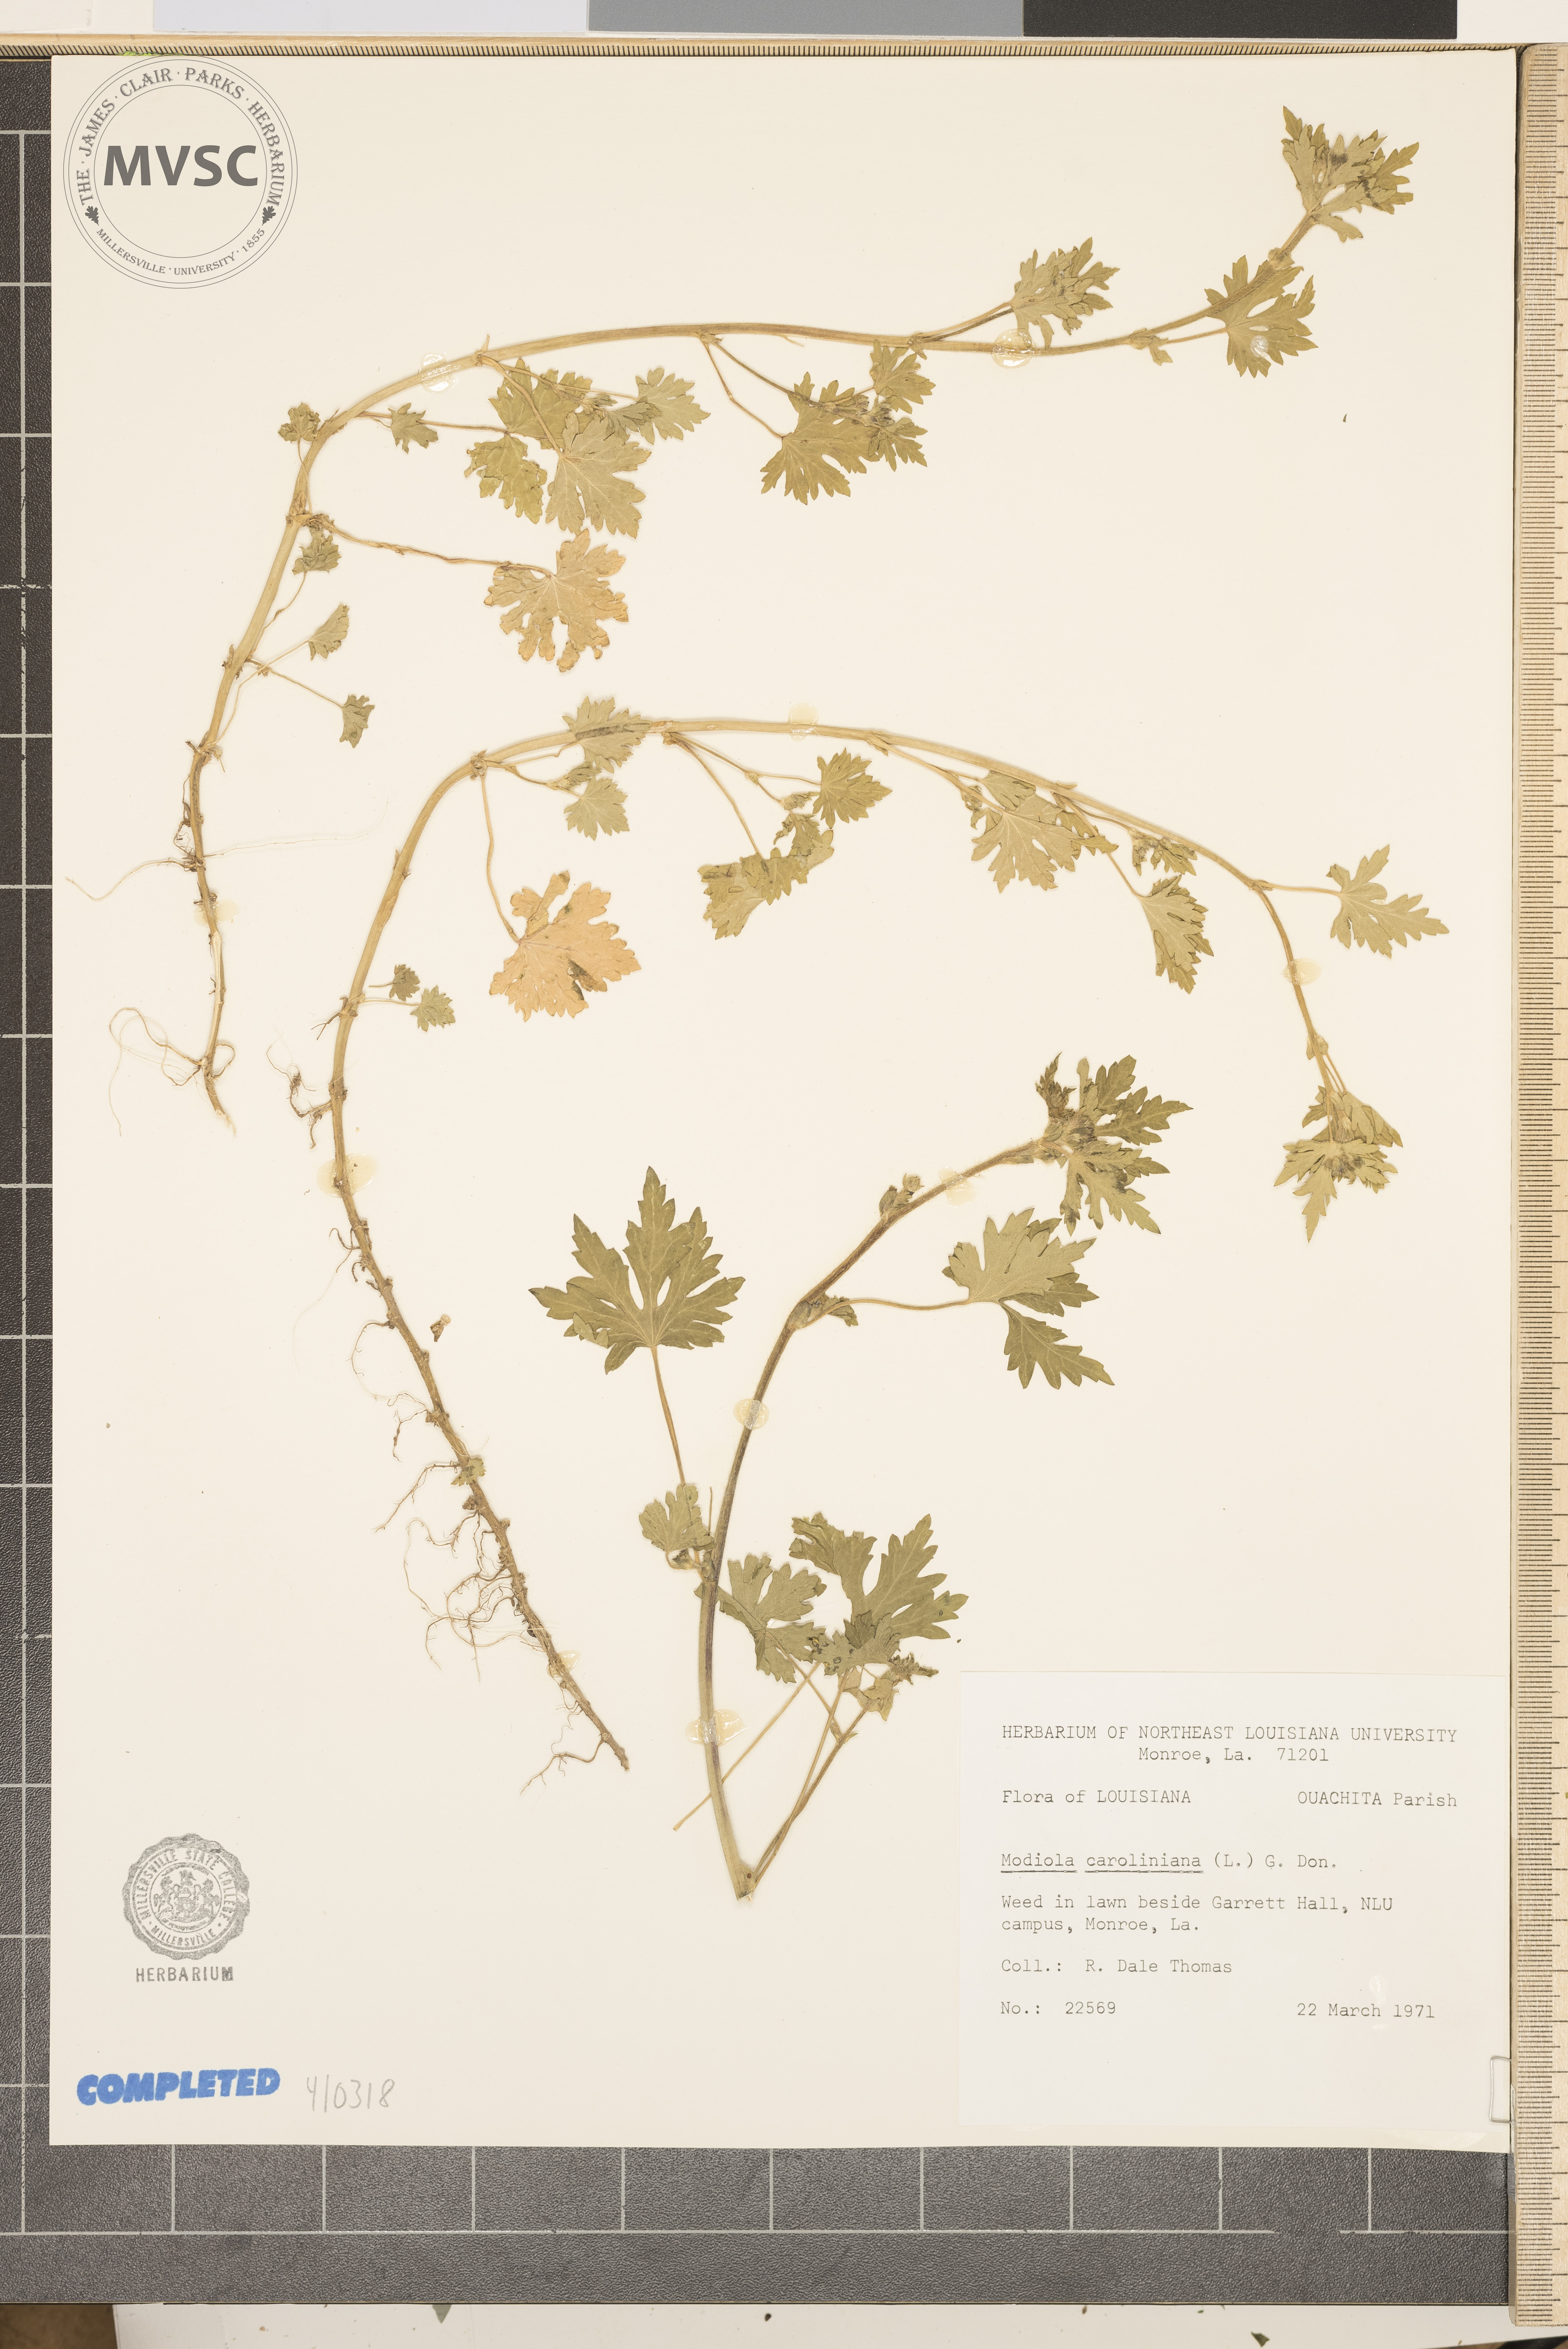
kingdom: Plantae
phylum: Tracheophyta
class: Magnoliopsida
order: Malvales
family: Malvaceae
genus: Modiola
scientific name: Modiola caroliniana
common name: Carolina Bristlemallow
